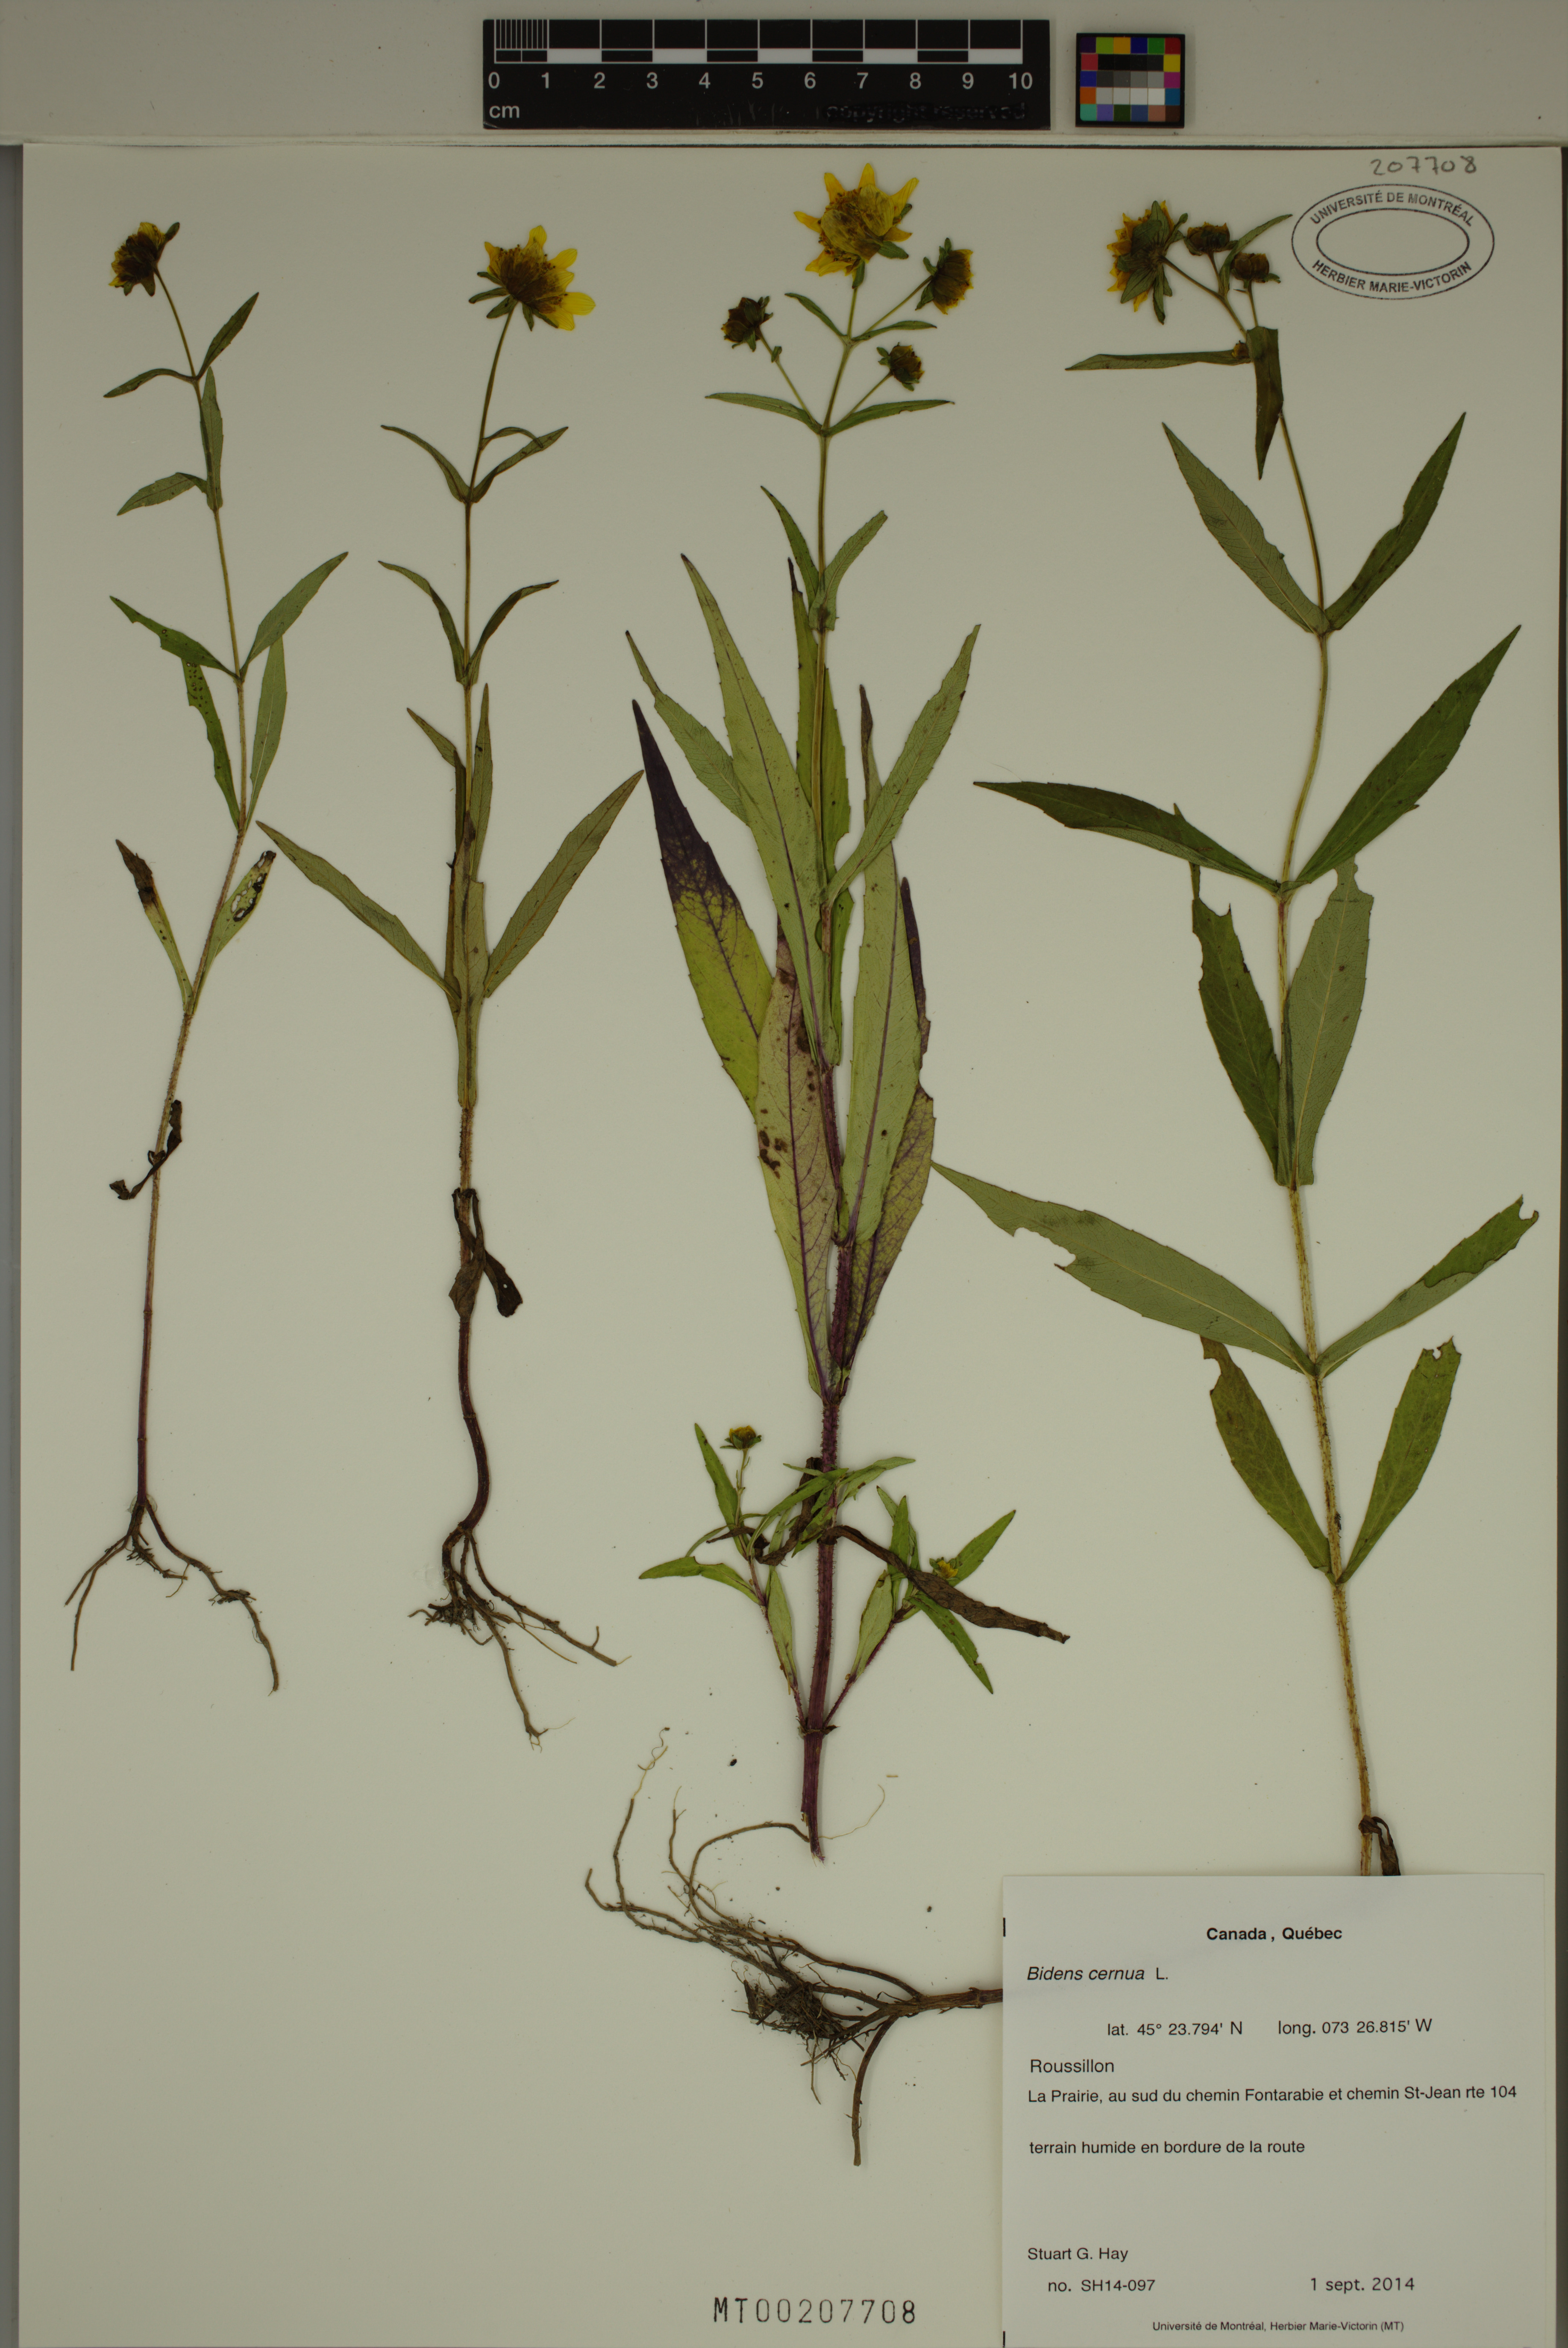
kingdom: Plantae
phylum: Tracheophyta
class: Magnoliopsida
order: Asterales
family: Asteraceae
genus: Bidens
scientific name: Bidens cernua
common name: Nodding bur-marigold
